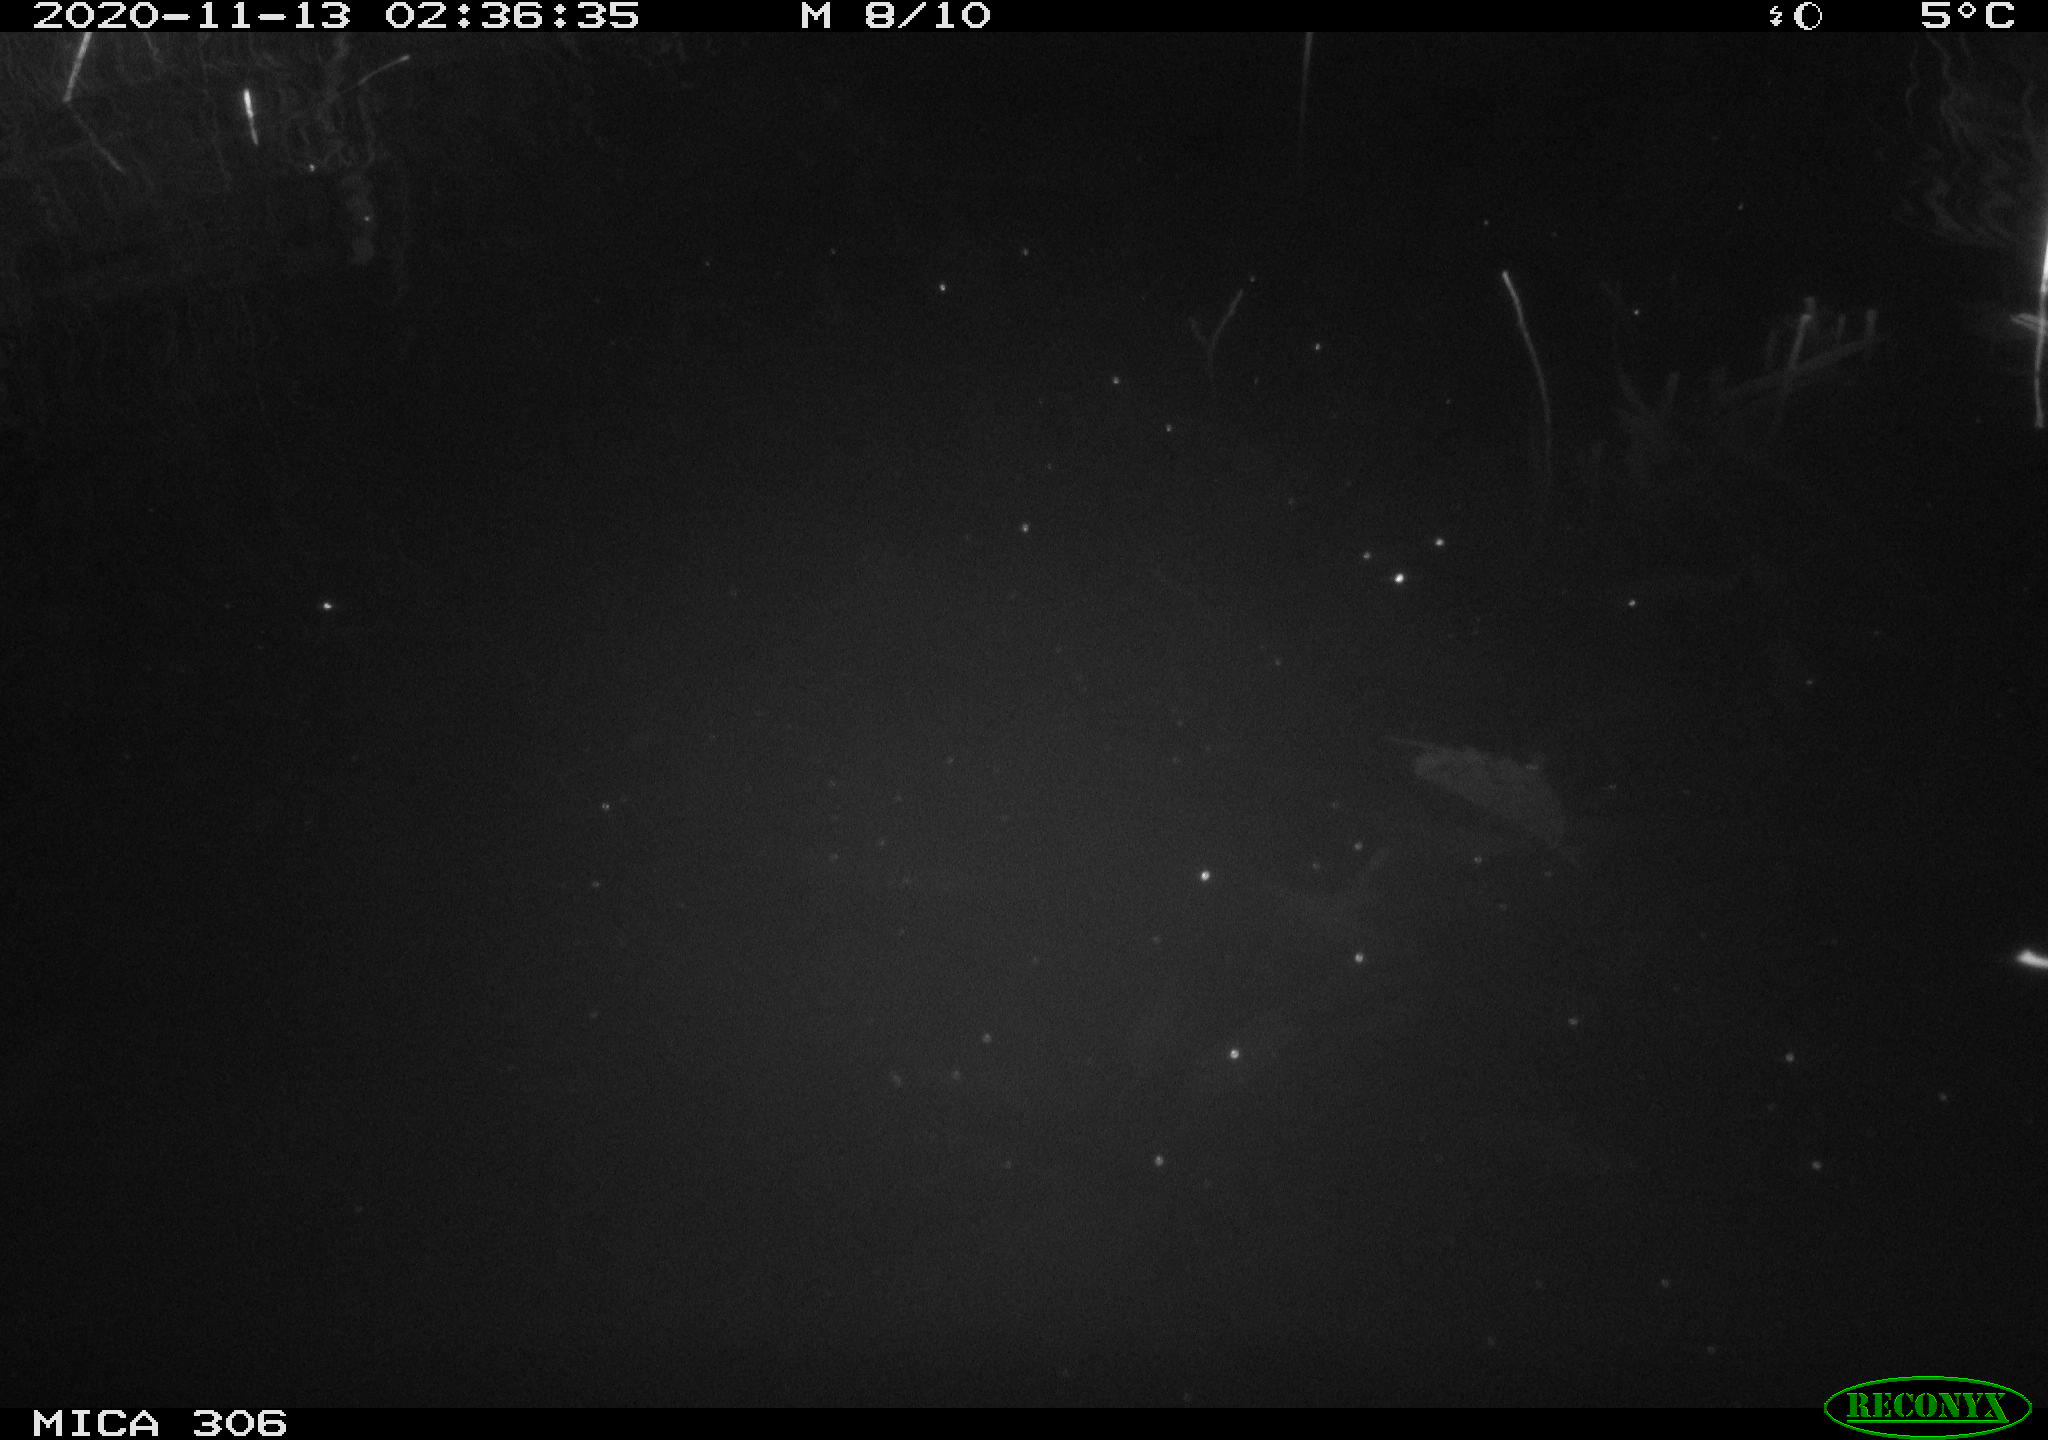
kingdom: Animalia
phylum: Chordata
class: Mammalia
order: Rodentia
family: Cricetidae
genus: Ondatra
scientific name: Ondatra zibethicus
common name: Muskrat
